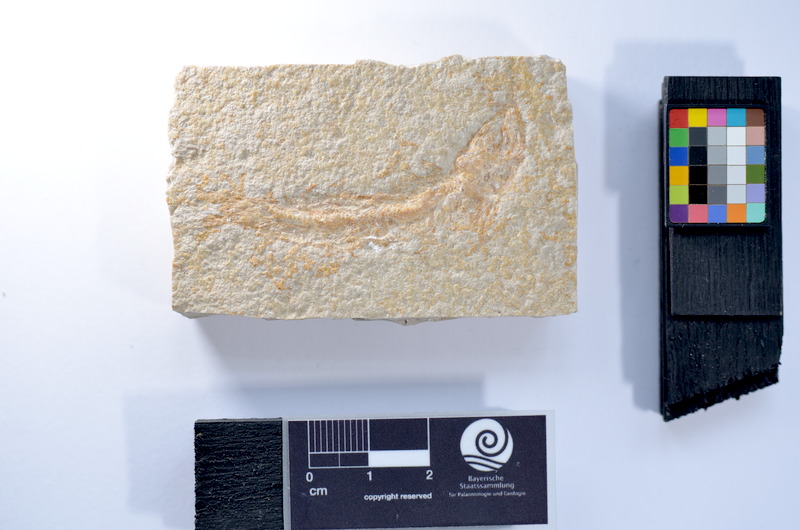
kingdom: Animalia
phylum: Chordata
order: Salmoniformes
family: Orthogonikleithridae
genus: Leptolepides
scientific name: Leptolepides
